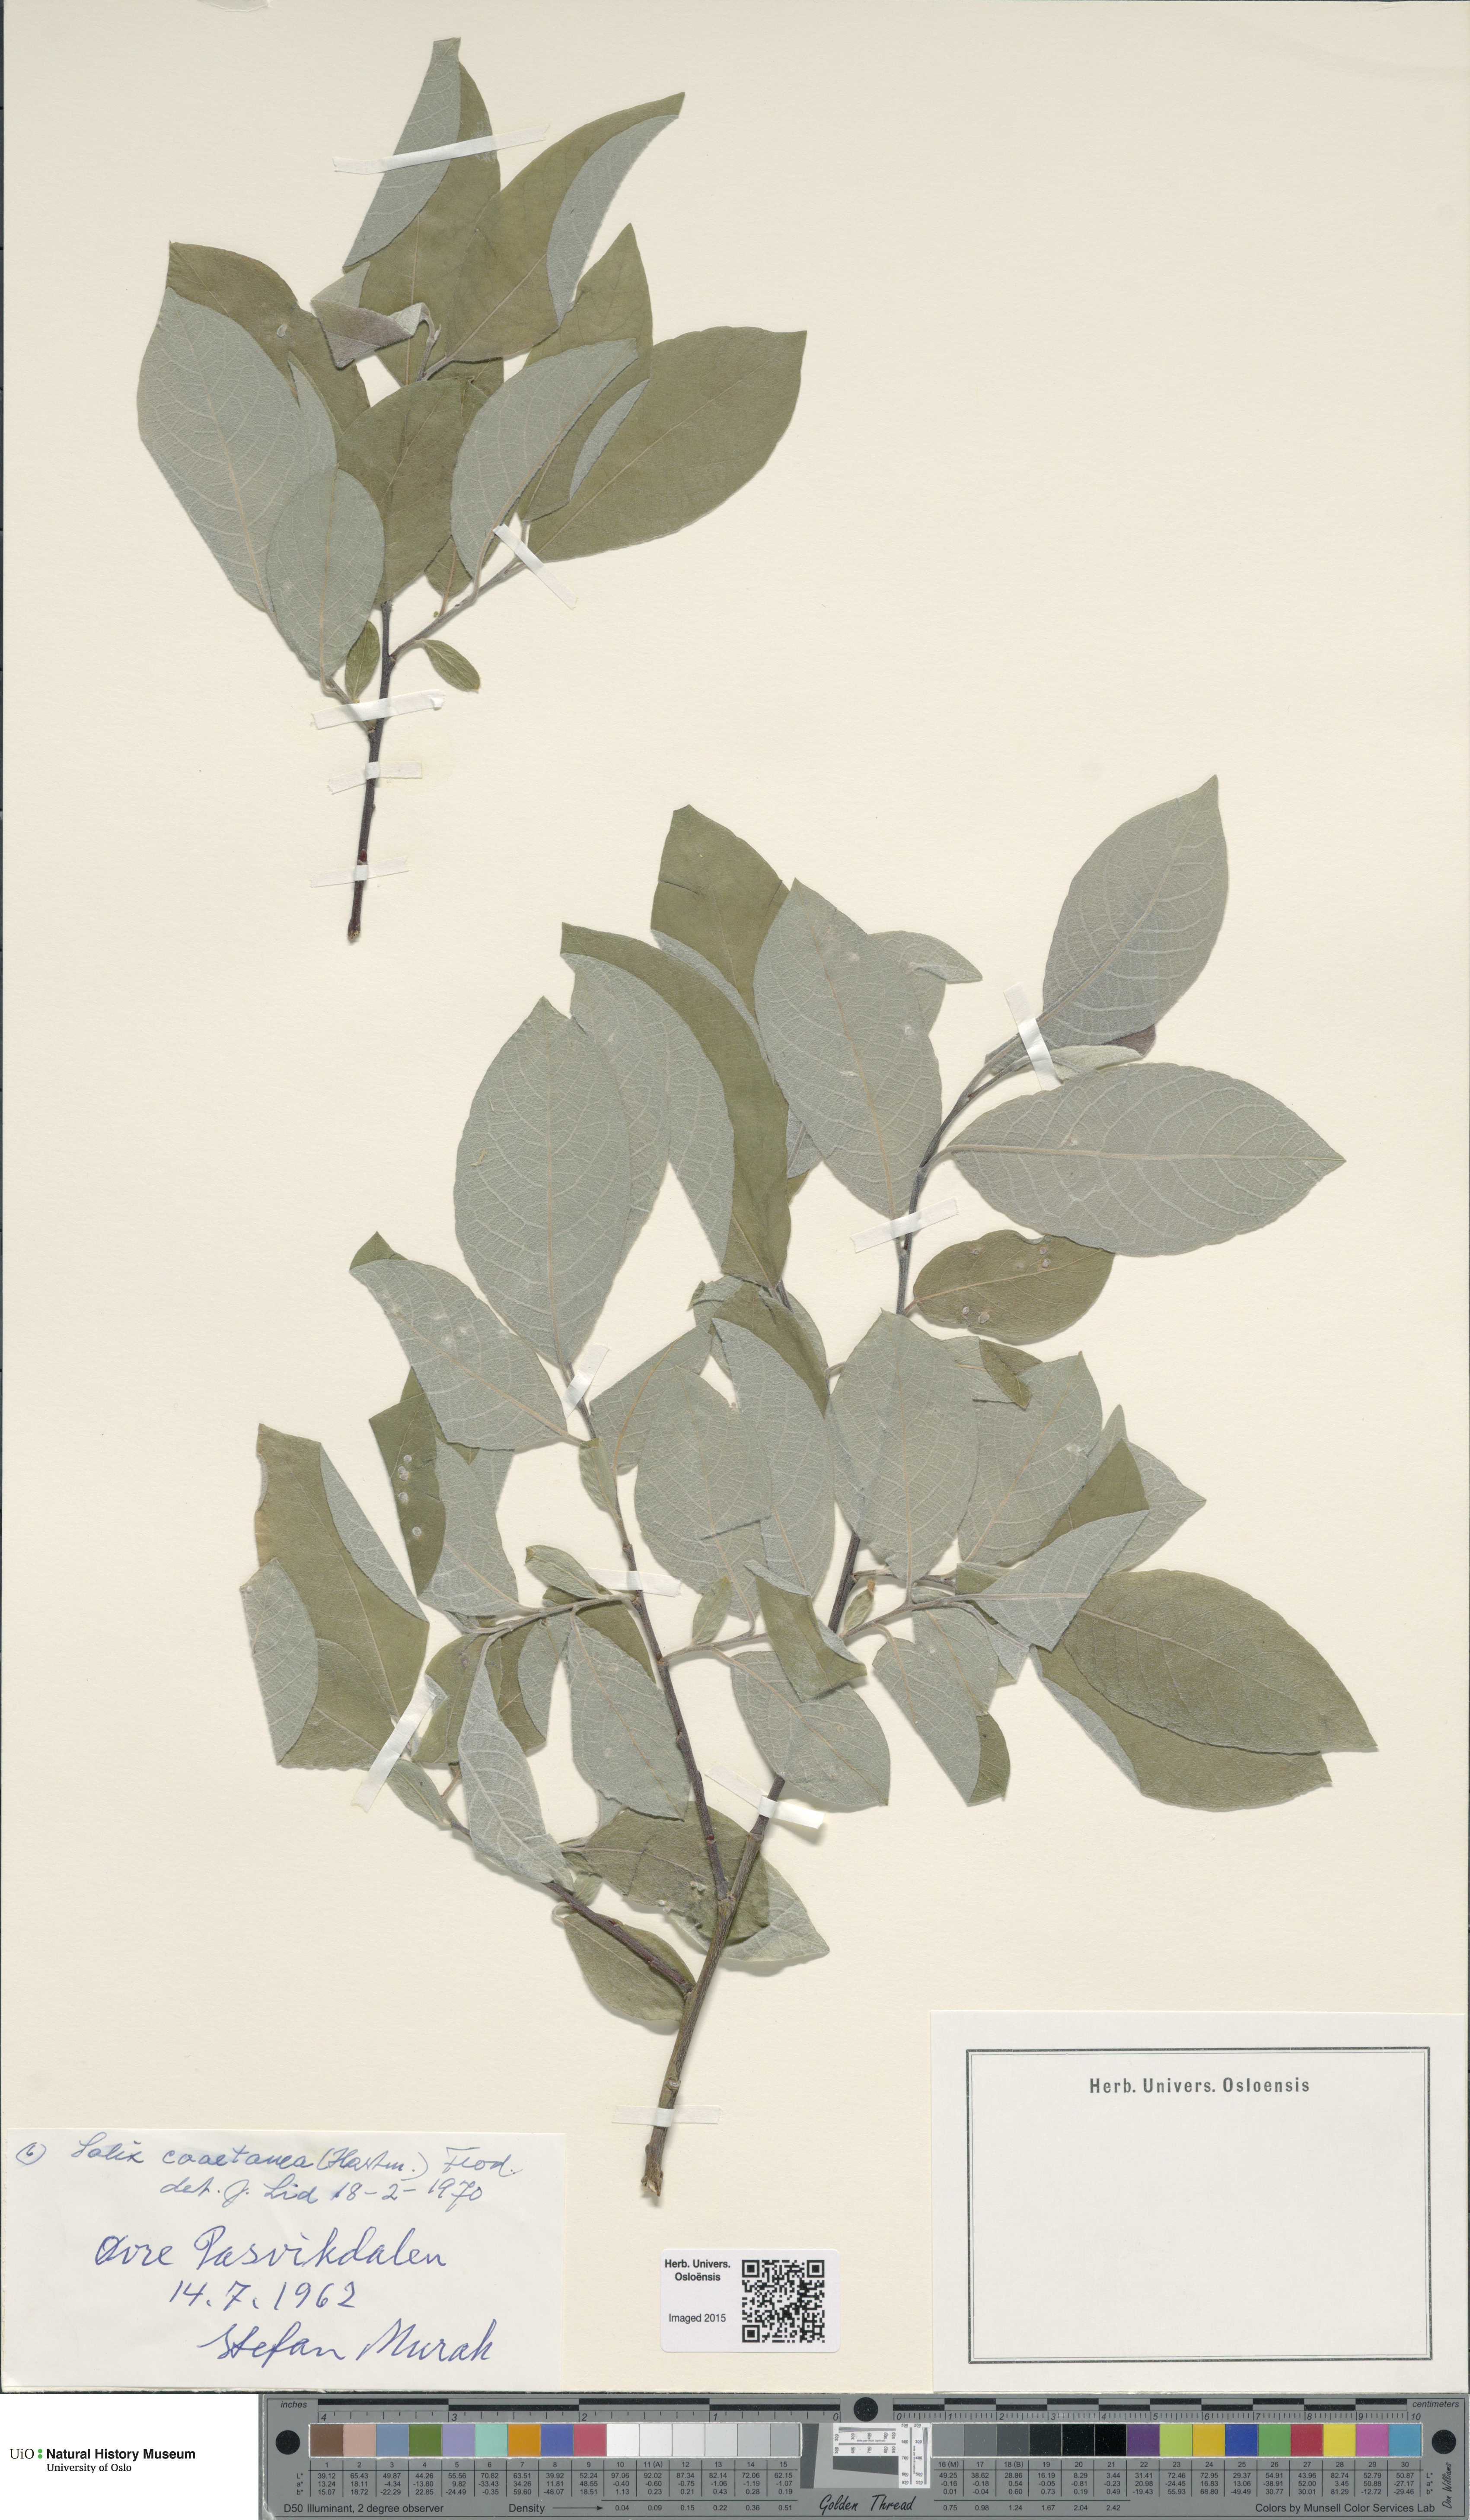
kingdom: Plantae
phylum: Tracheophyta
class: Magnoliopsida
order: Malpighiales
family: Salicaceae
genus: Salix
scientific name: Salix caprea
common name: Goat willow
